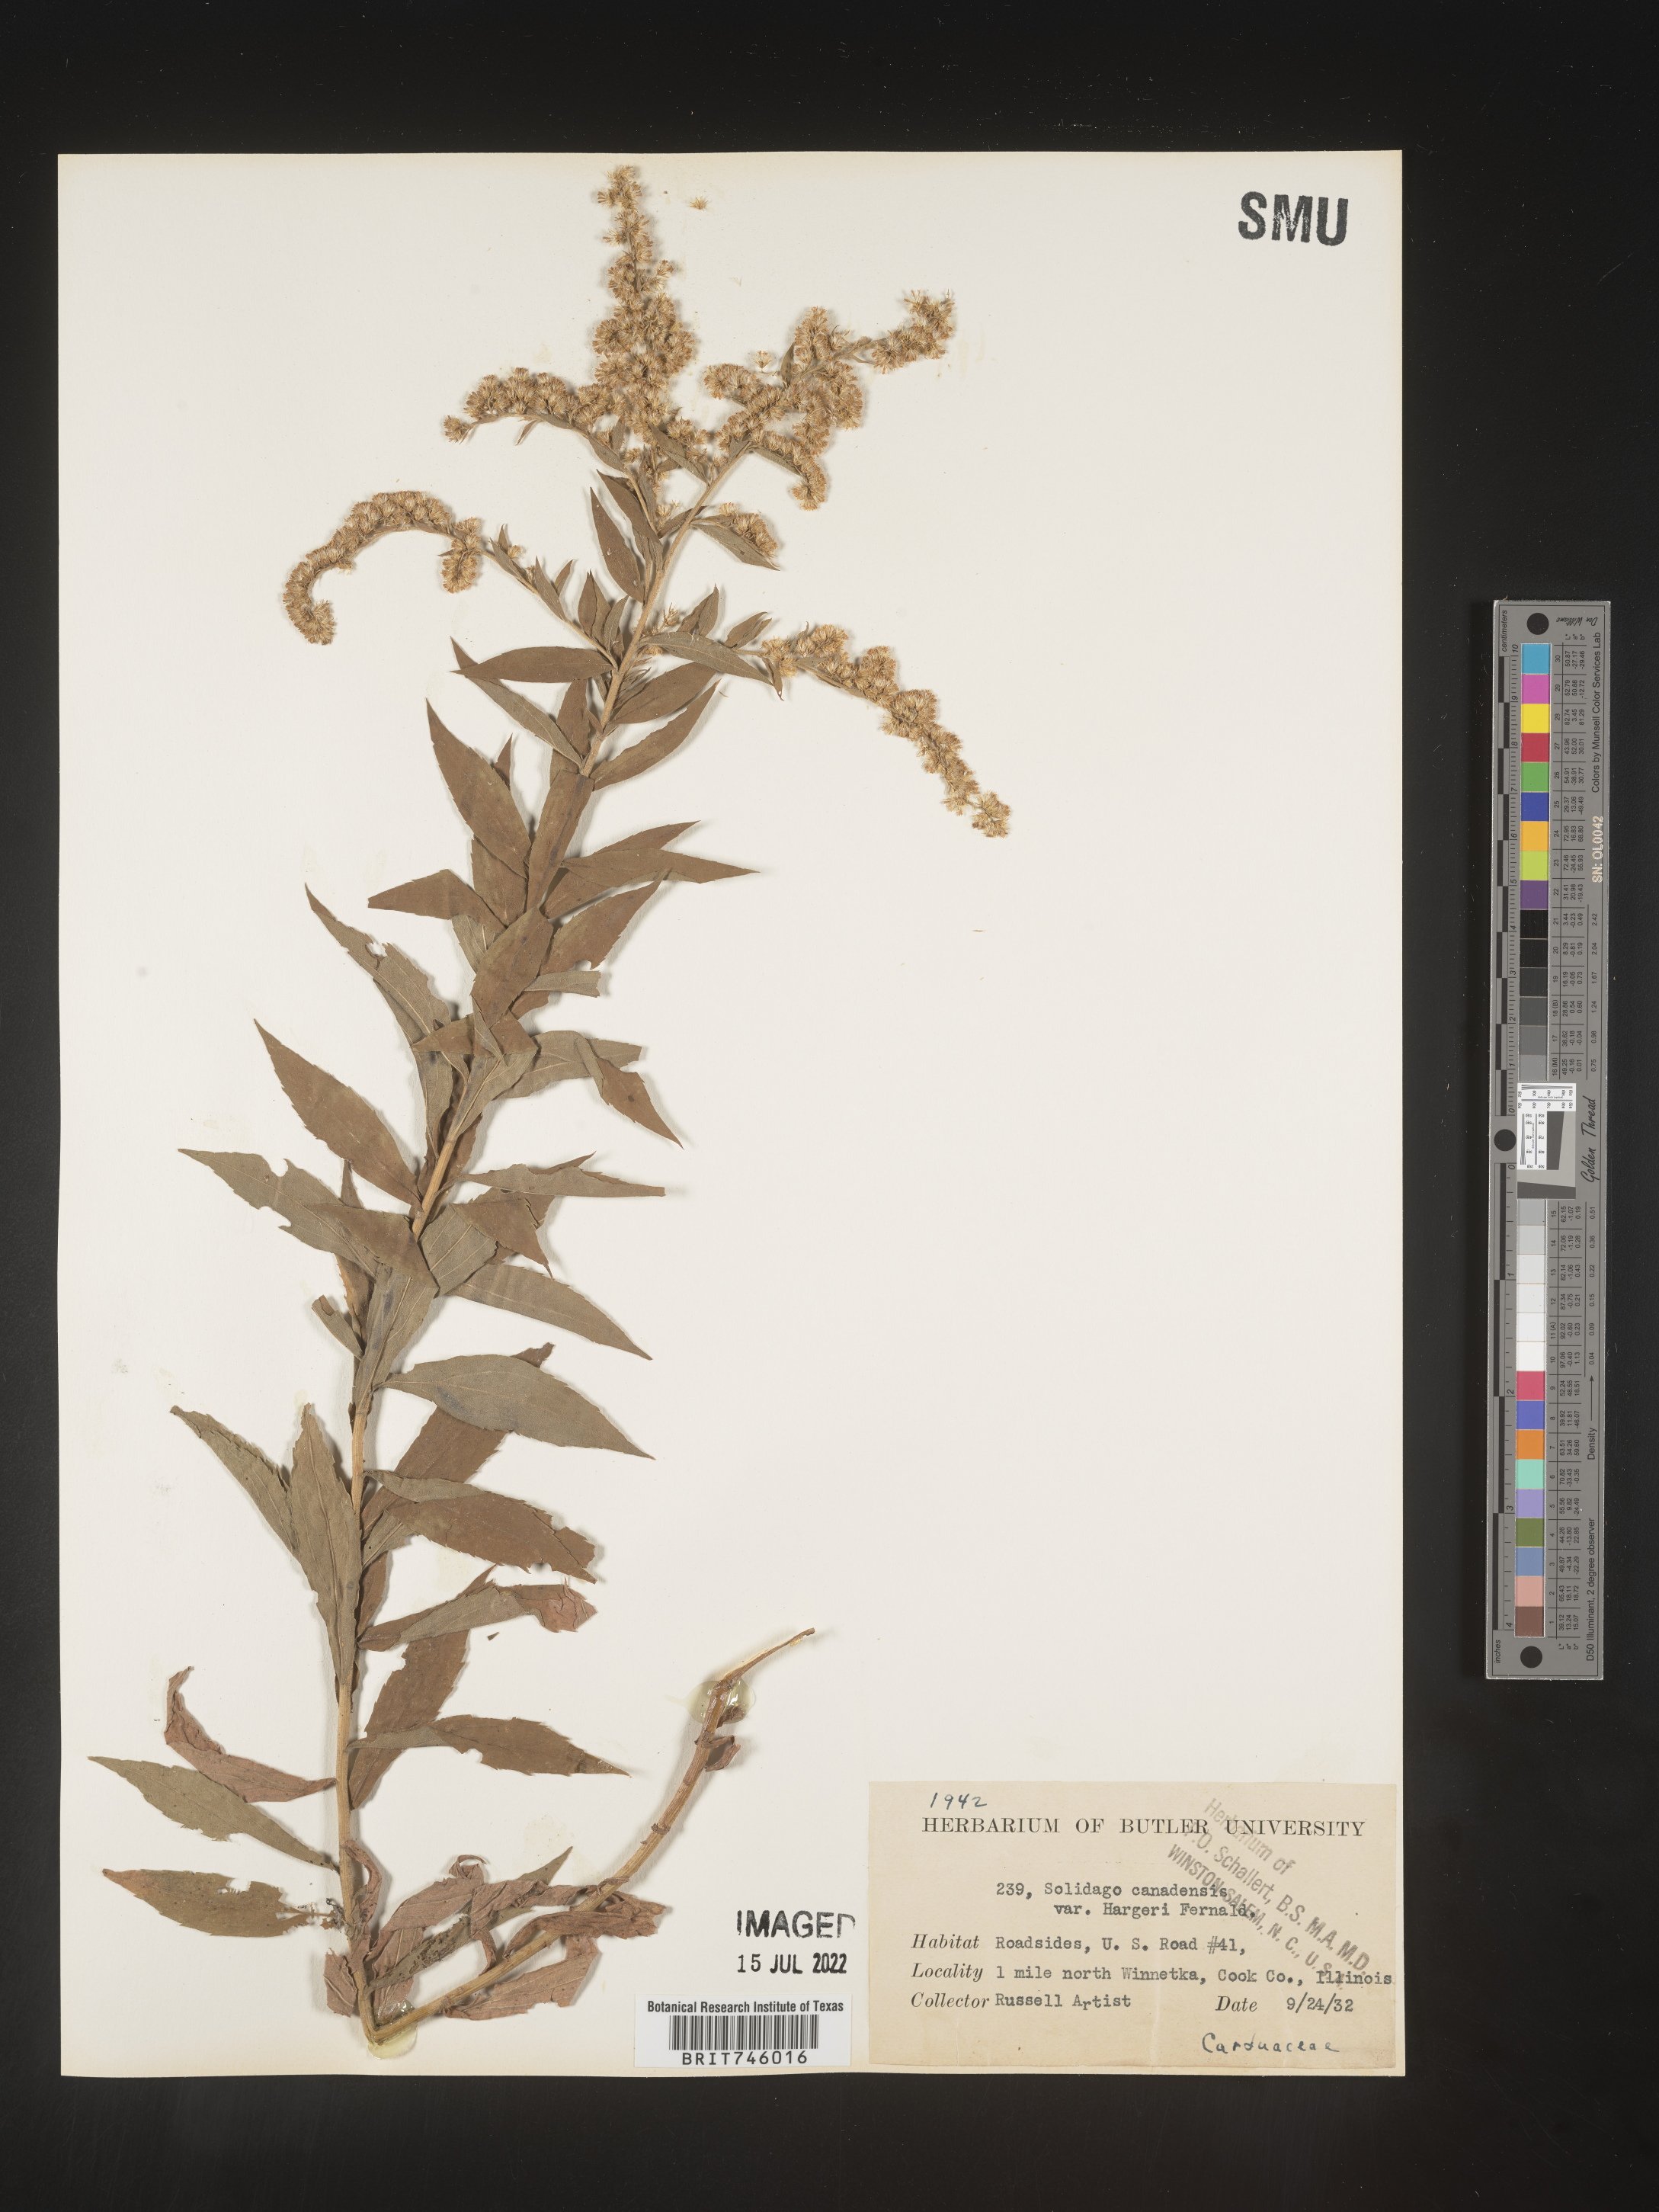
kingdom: Plantae
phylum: Tracheophyta
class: Magnoliopsida
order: Asterales
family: Asteraceae
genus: Solidago
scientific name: Solidago canadensis
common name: Canada goldenrod
